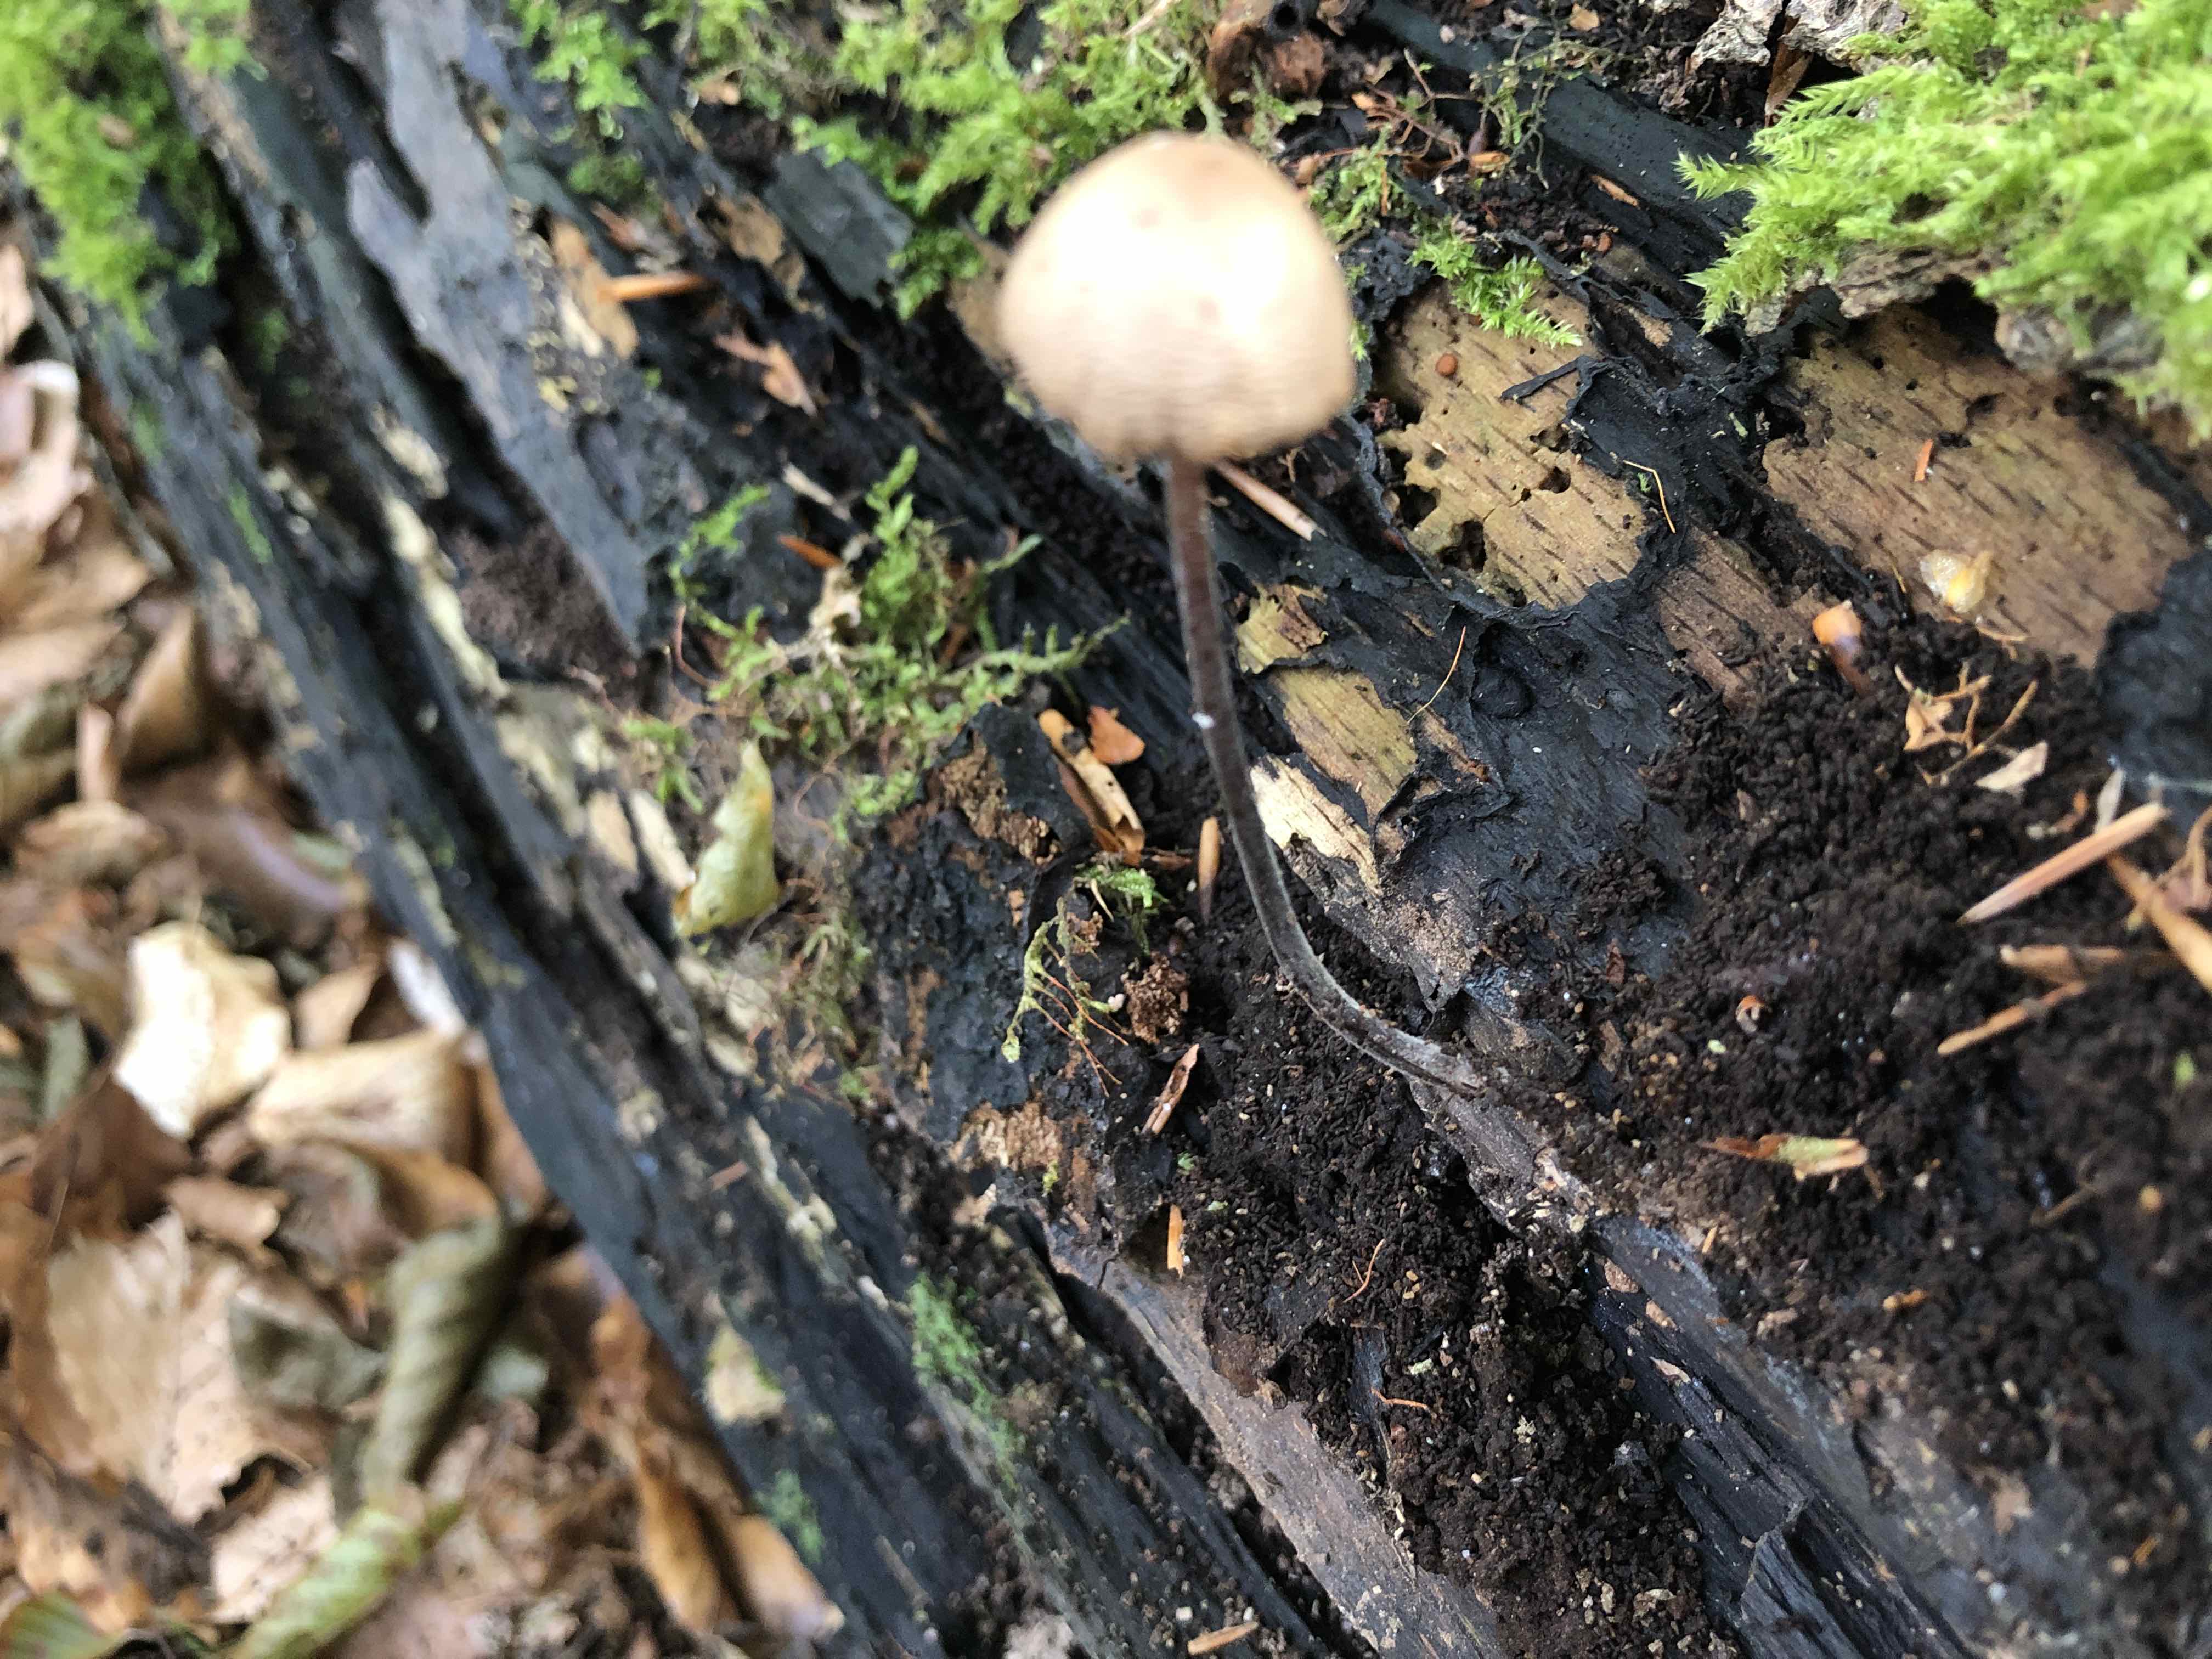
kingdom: Fungi
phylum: Basidiomycota
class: Agaricomycetes
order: Agaricales
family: Omphalotaceae
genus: Mycetinis
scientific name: Mycetinis alliaceus
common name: stor løghat
